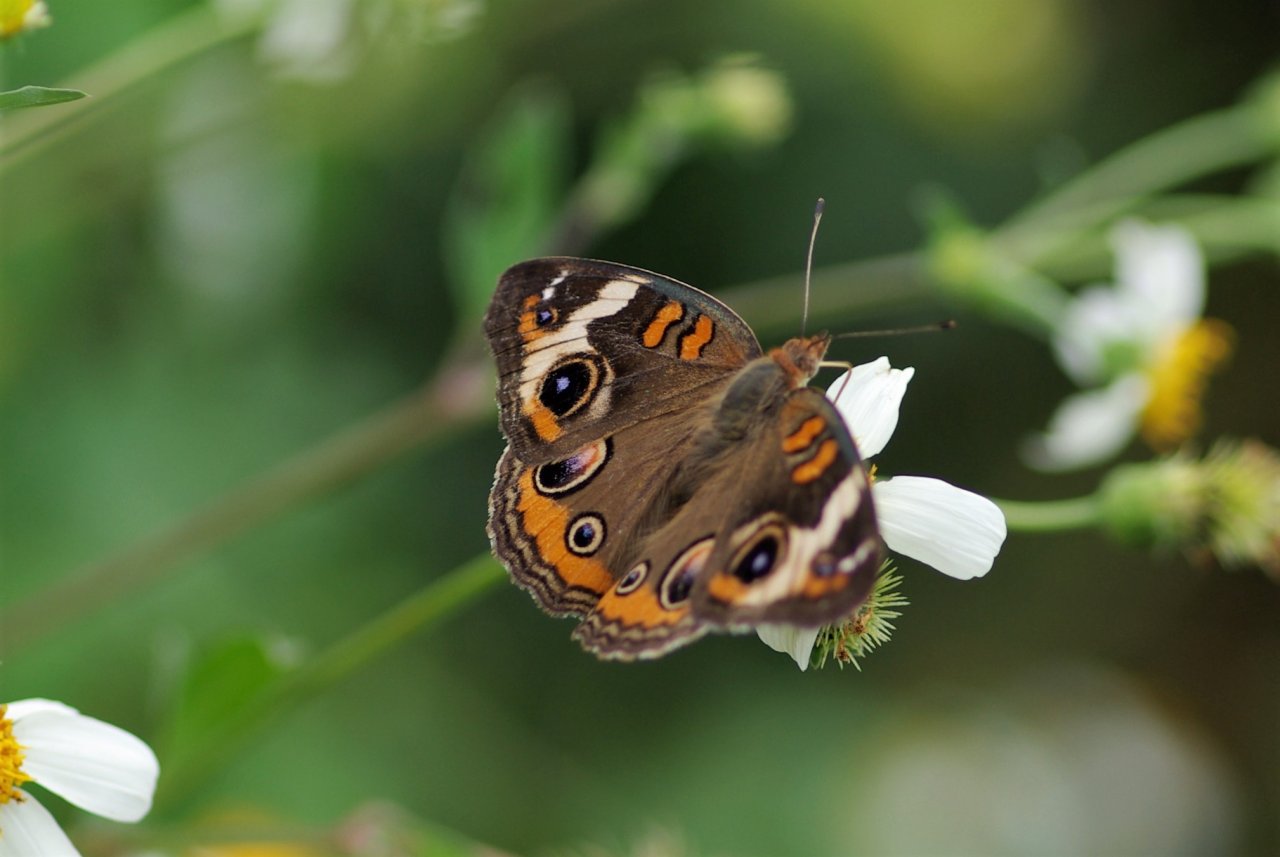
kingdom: Animalia
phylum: Arthropoda
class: Insecta
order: Lepidoptera
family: Nymphalidae
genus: Junonia
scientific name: Junonia coenia
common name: Common Buckeye
